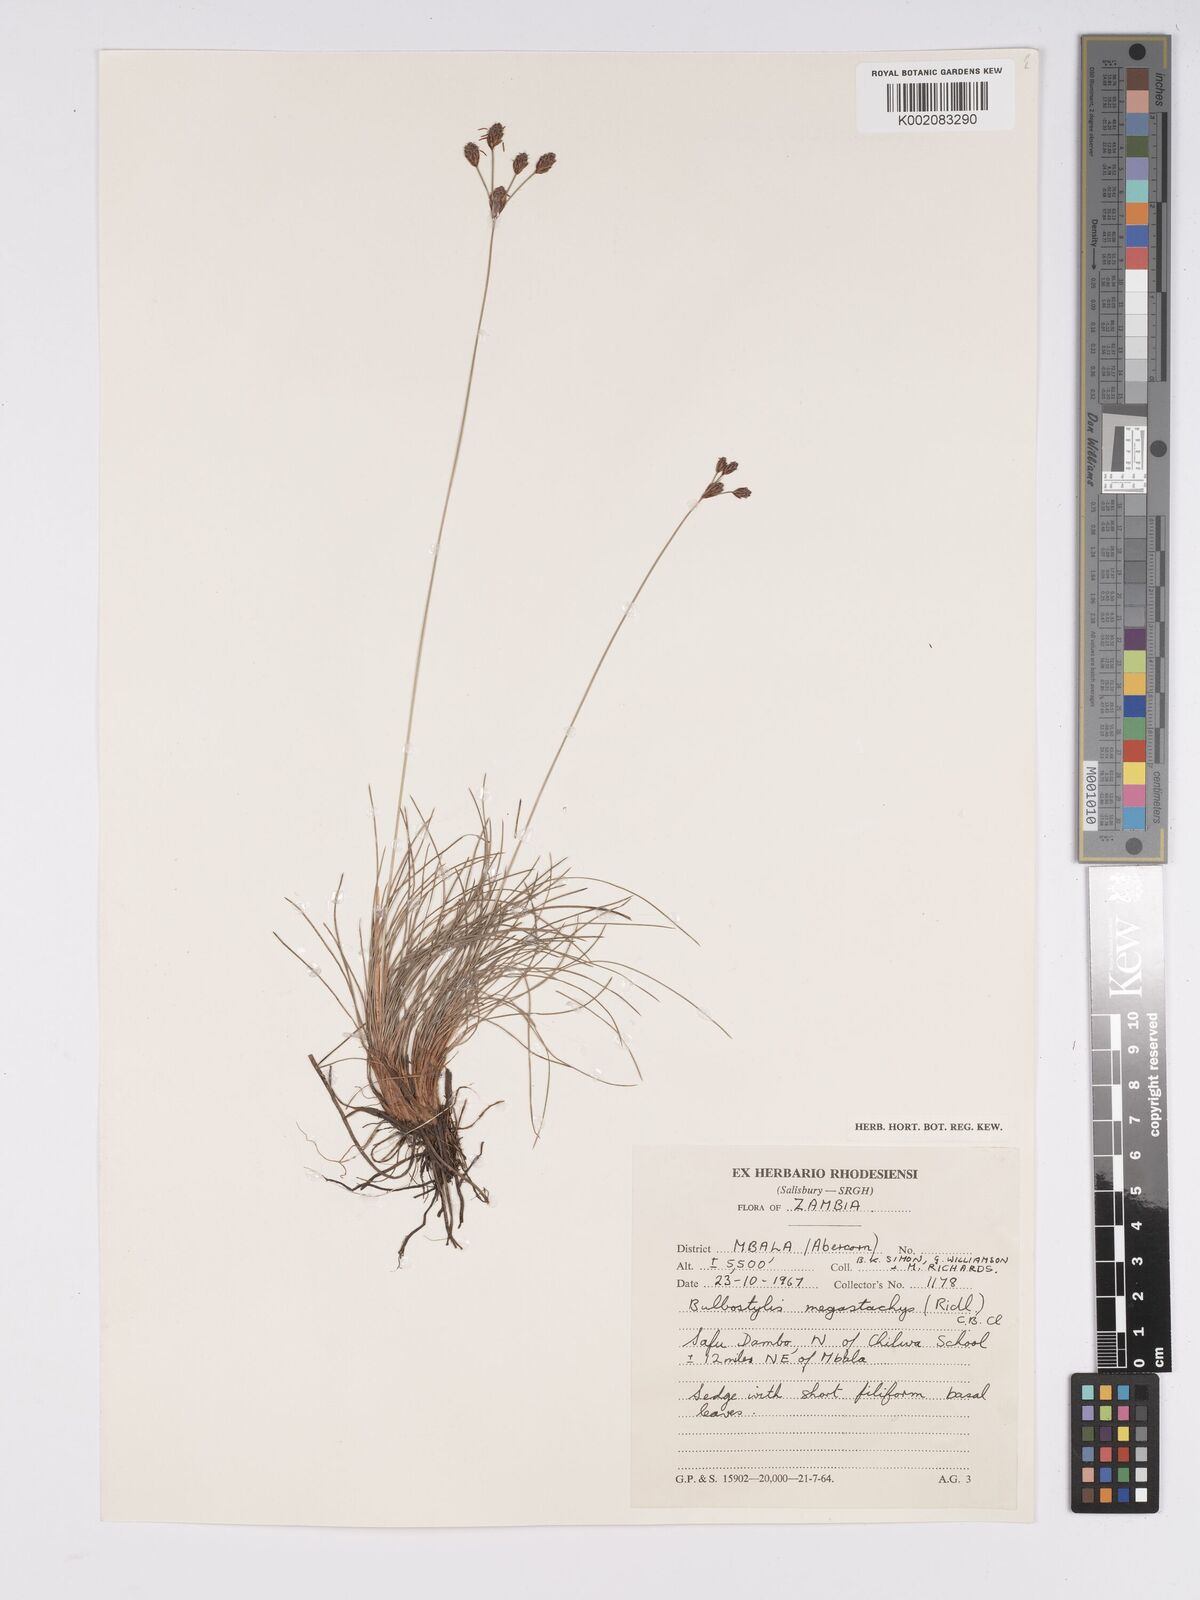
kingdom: Plantae
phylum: Tracheophyta
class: Liliopsida
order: Poales
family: Cyperaceae
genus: Bulbostylis
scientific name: Bulbostylis schoenoides
